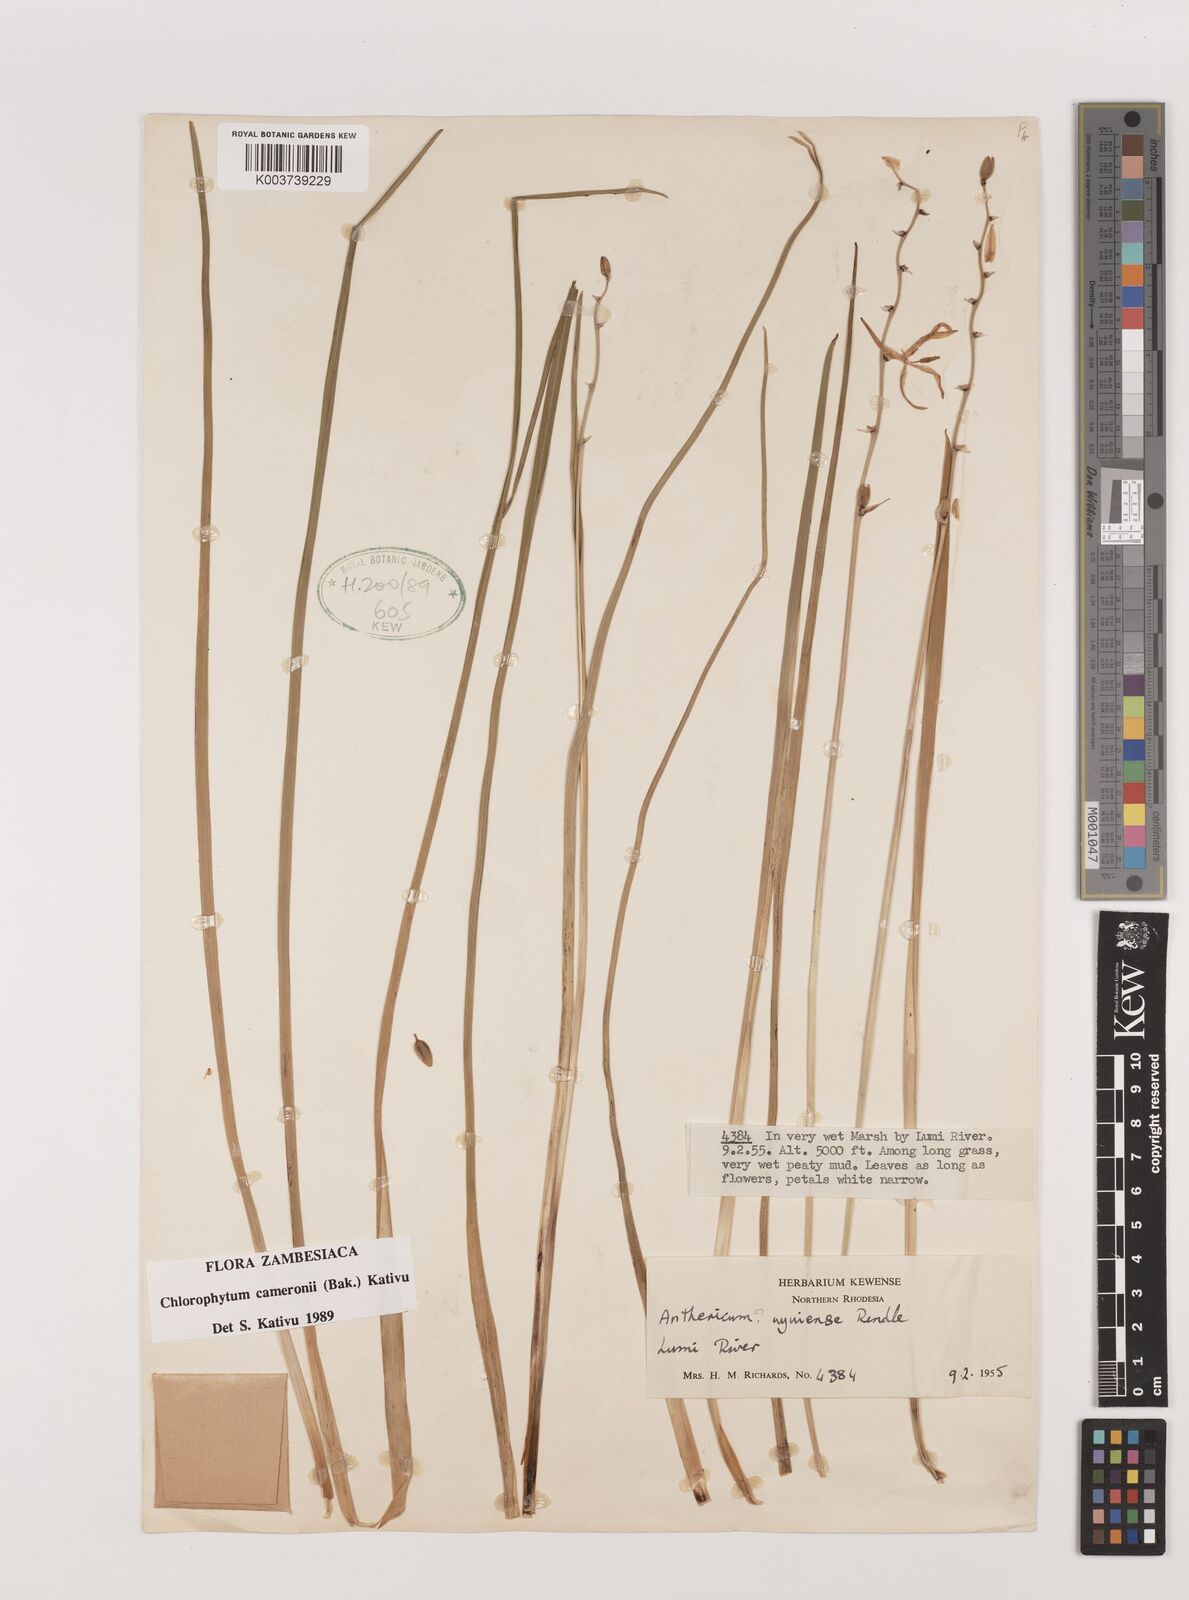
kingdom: Plantae
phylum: Tracheophyta
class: Liliopsida
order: Asparagales
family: Asparagaceae
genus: Chlorophytum
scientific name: Chlorophytum cameronii
